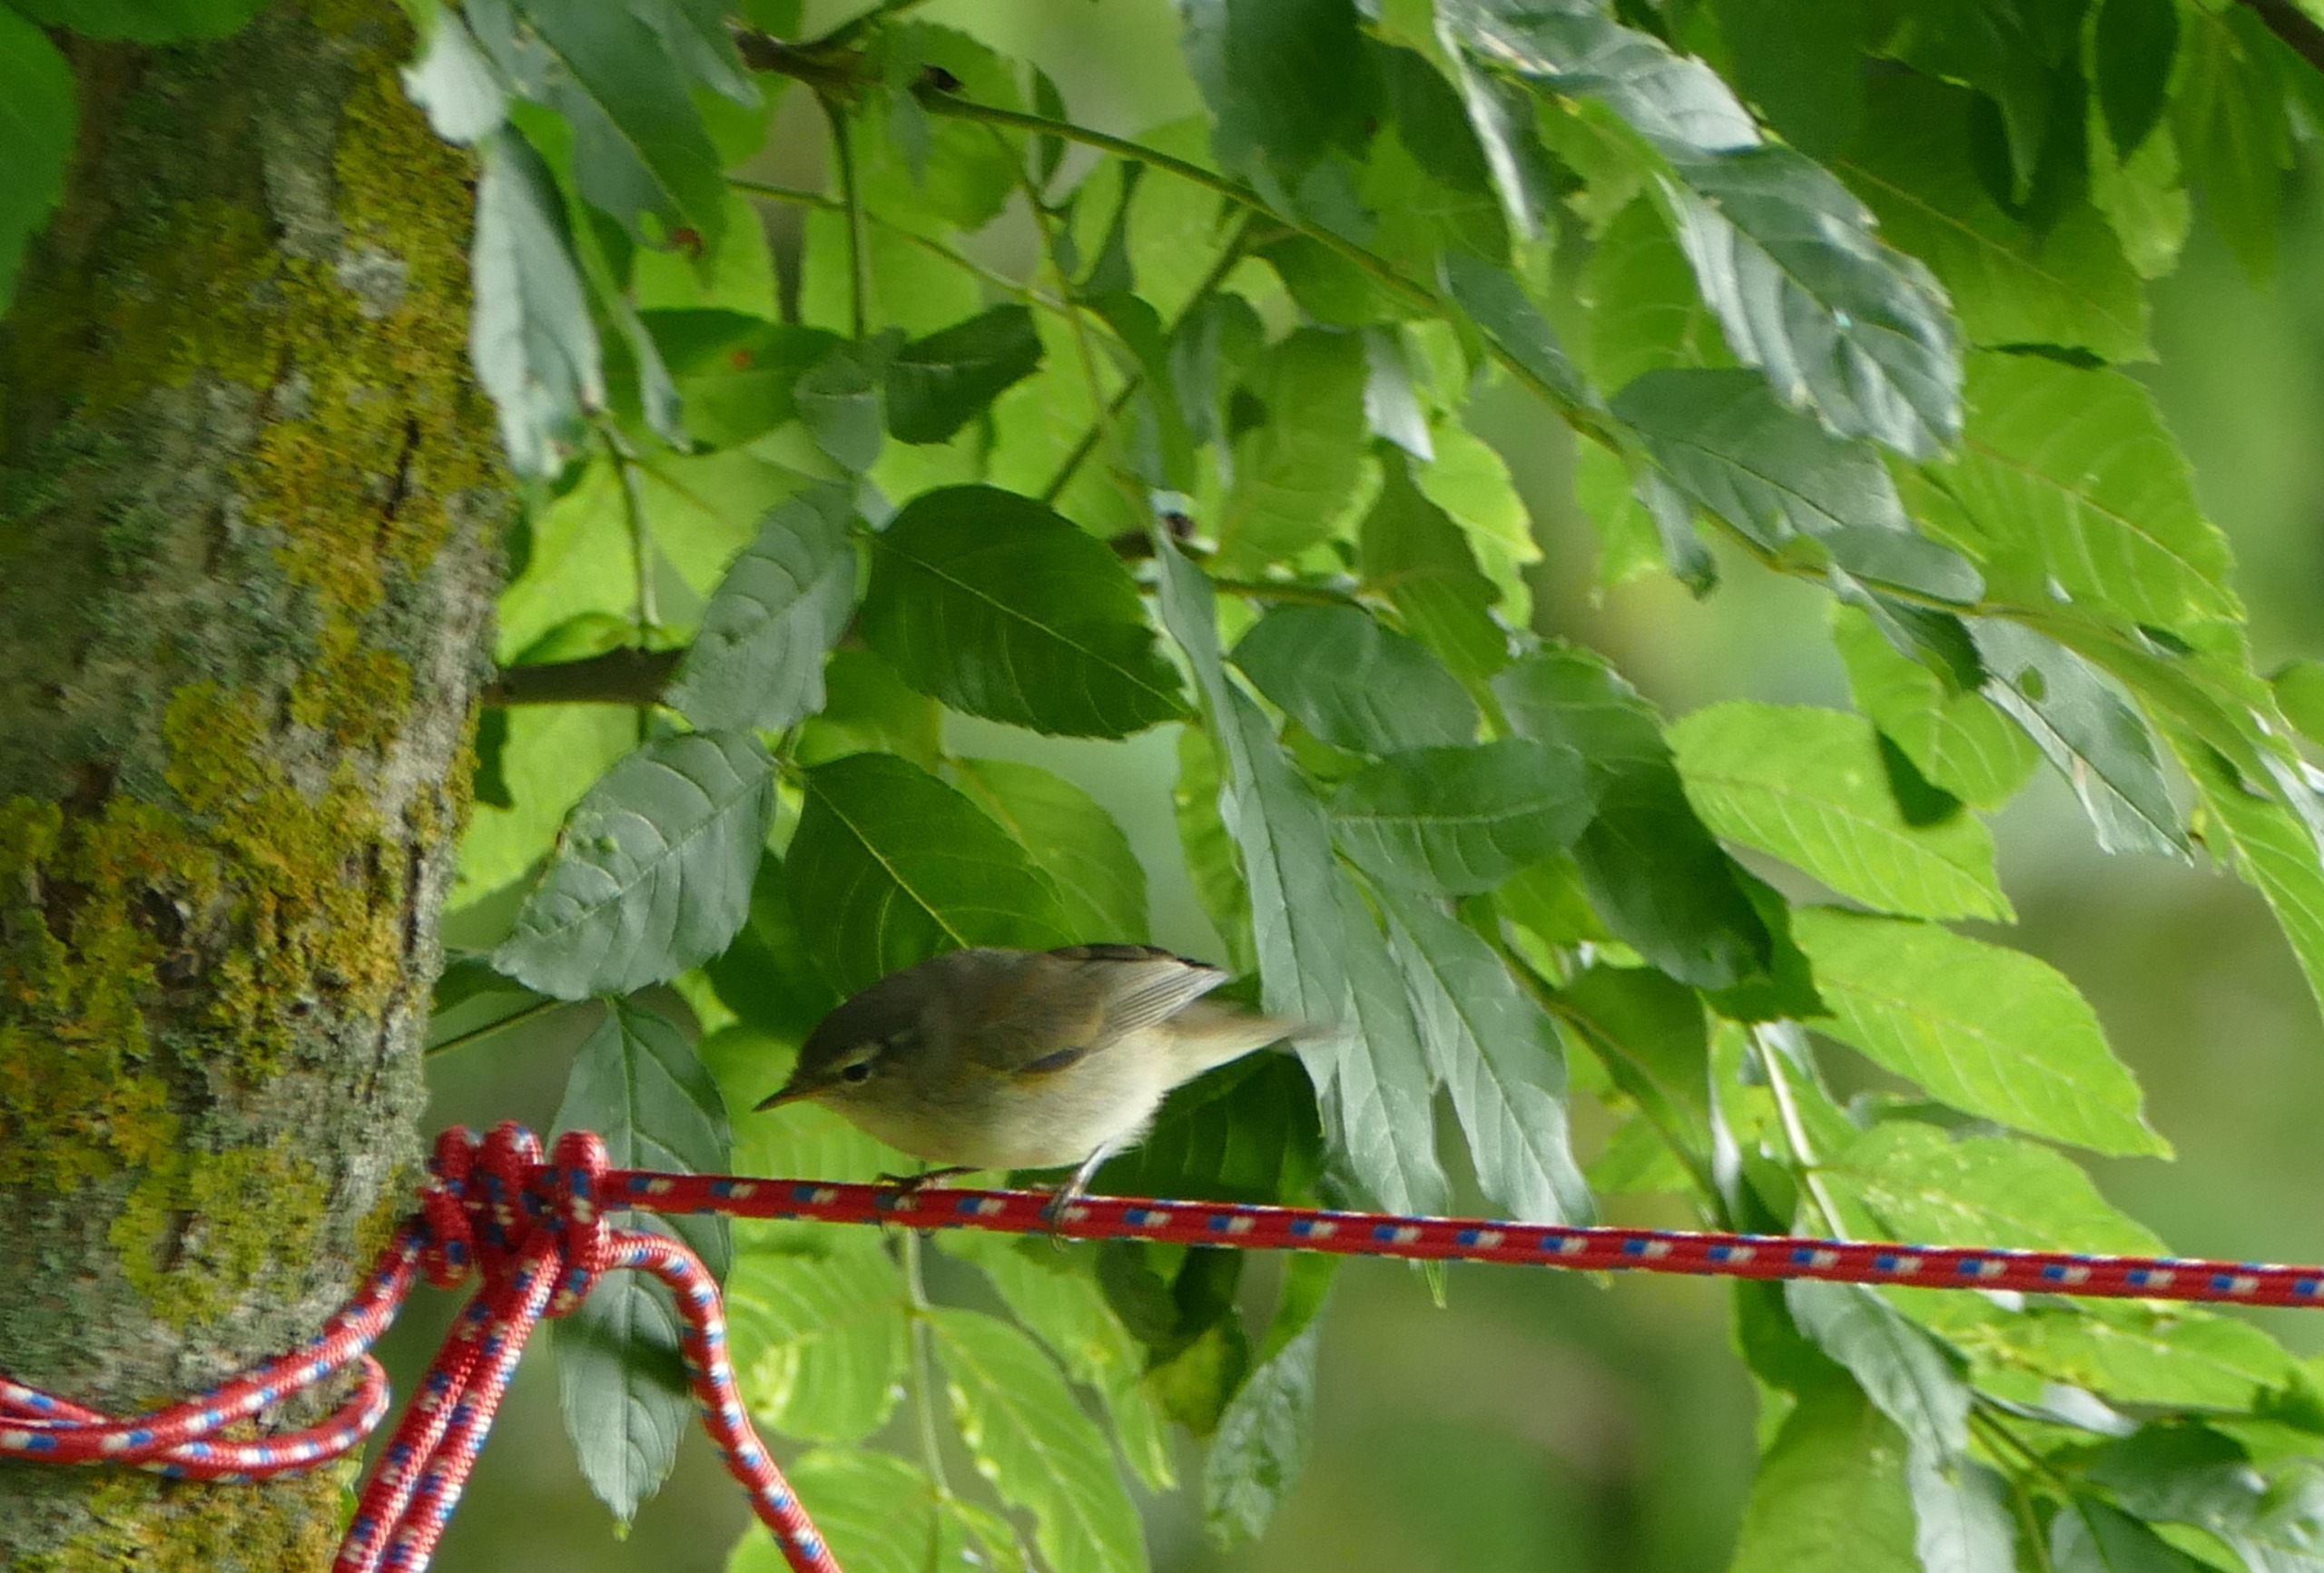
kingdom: Animalia
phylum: Chordata
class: Aves
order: Passeriformes
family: Phylloscopidae
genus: Phylloscopus
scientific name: Phylloscopus collybita
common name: Gransanger
